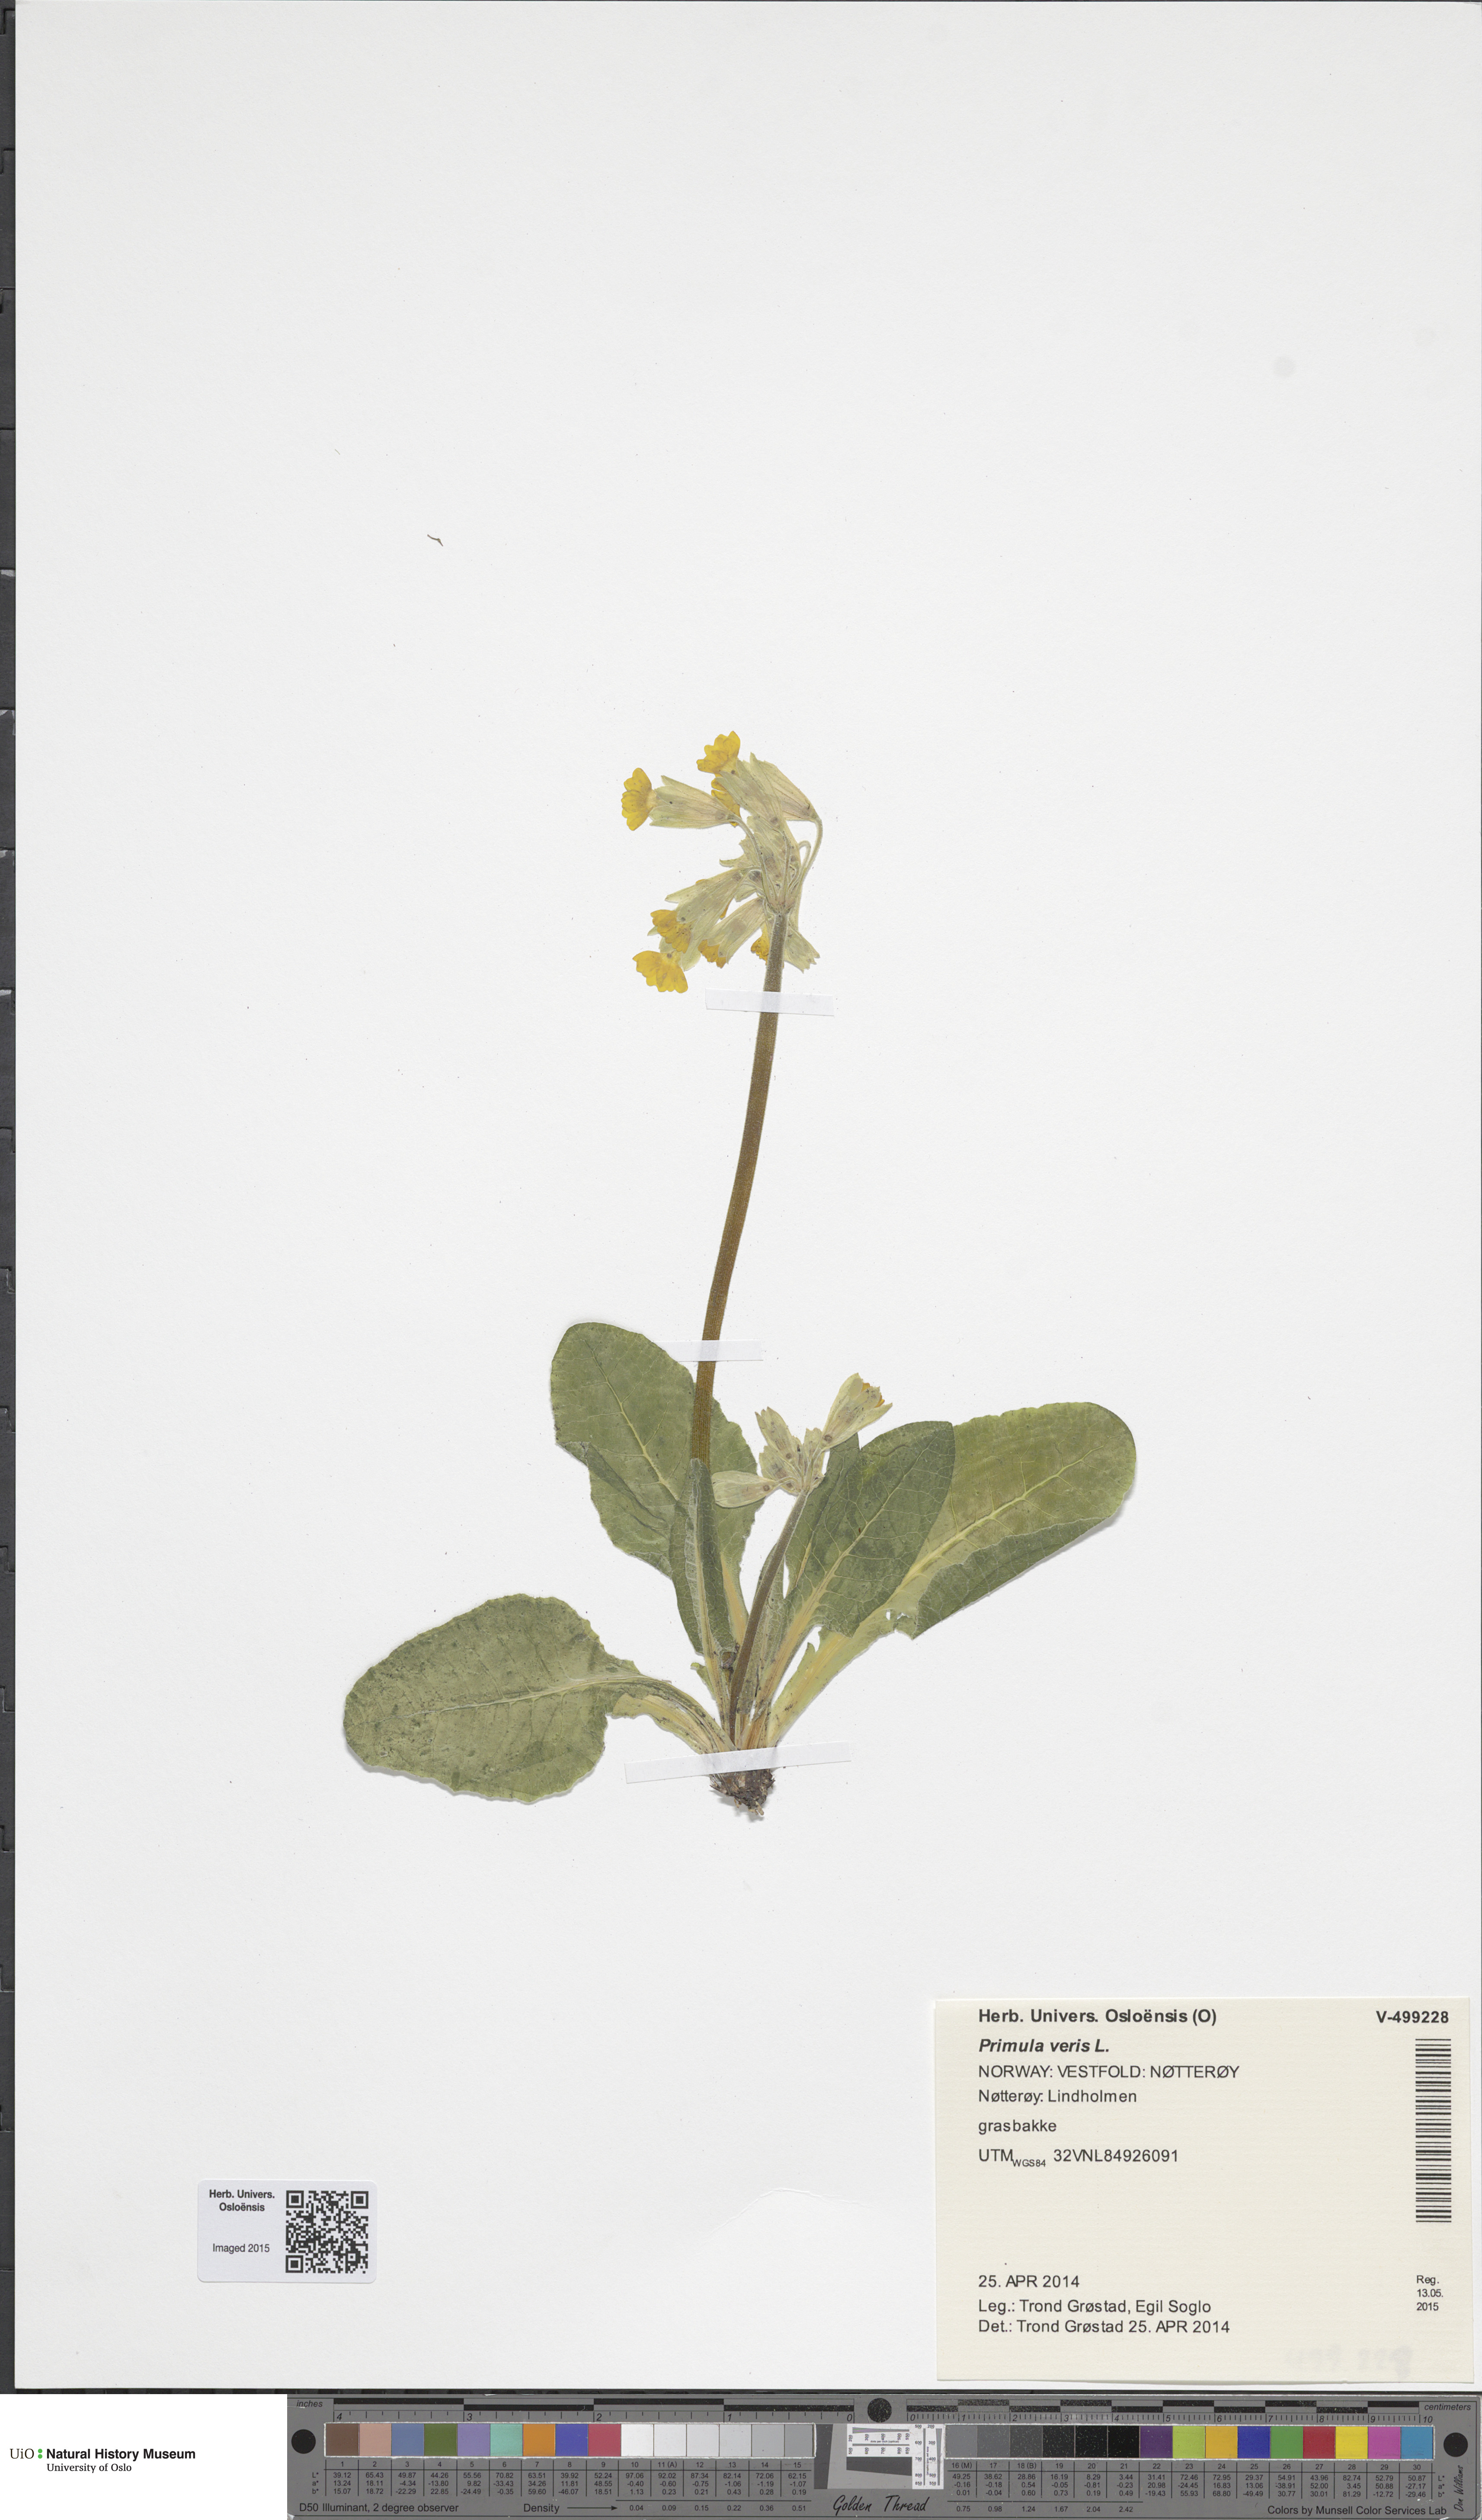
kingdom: Plantae
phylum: Tracheophyta
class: Magnoliopsida
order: Ericales
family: Primulaceae
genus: Primula
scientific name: Primula veris
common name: Cowslip
